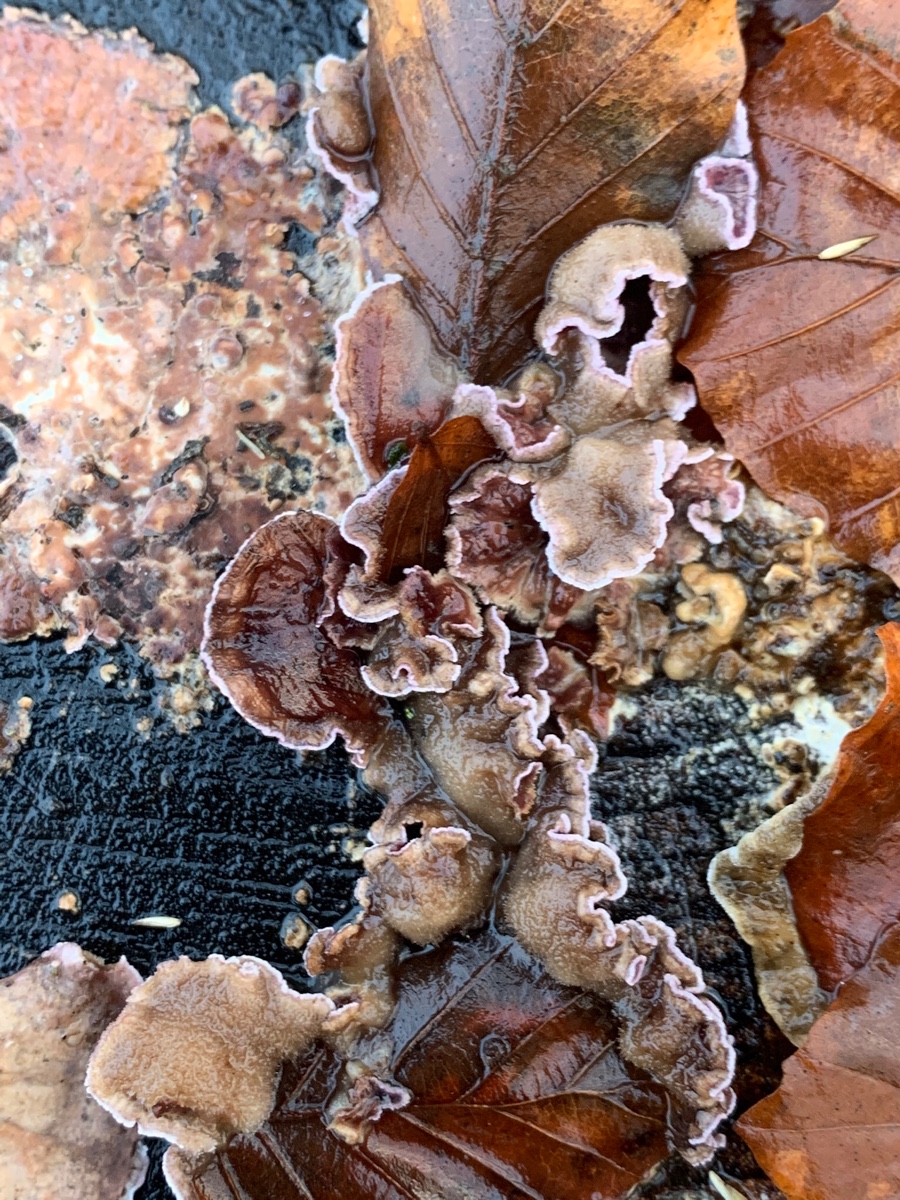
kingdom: Fungi
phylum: Basidiomycota
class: Agaricomycetes
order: Agaricales
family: Cyphellaceae
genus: Chondrostereum
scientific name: Chondrostereum purpureum
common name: purpurlædersvamp
